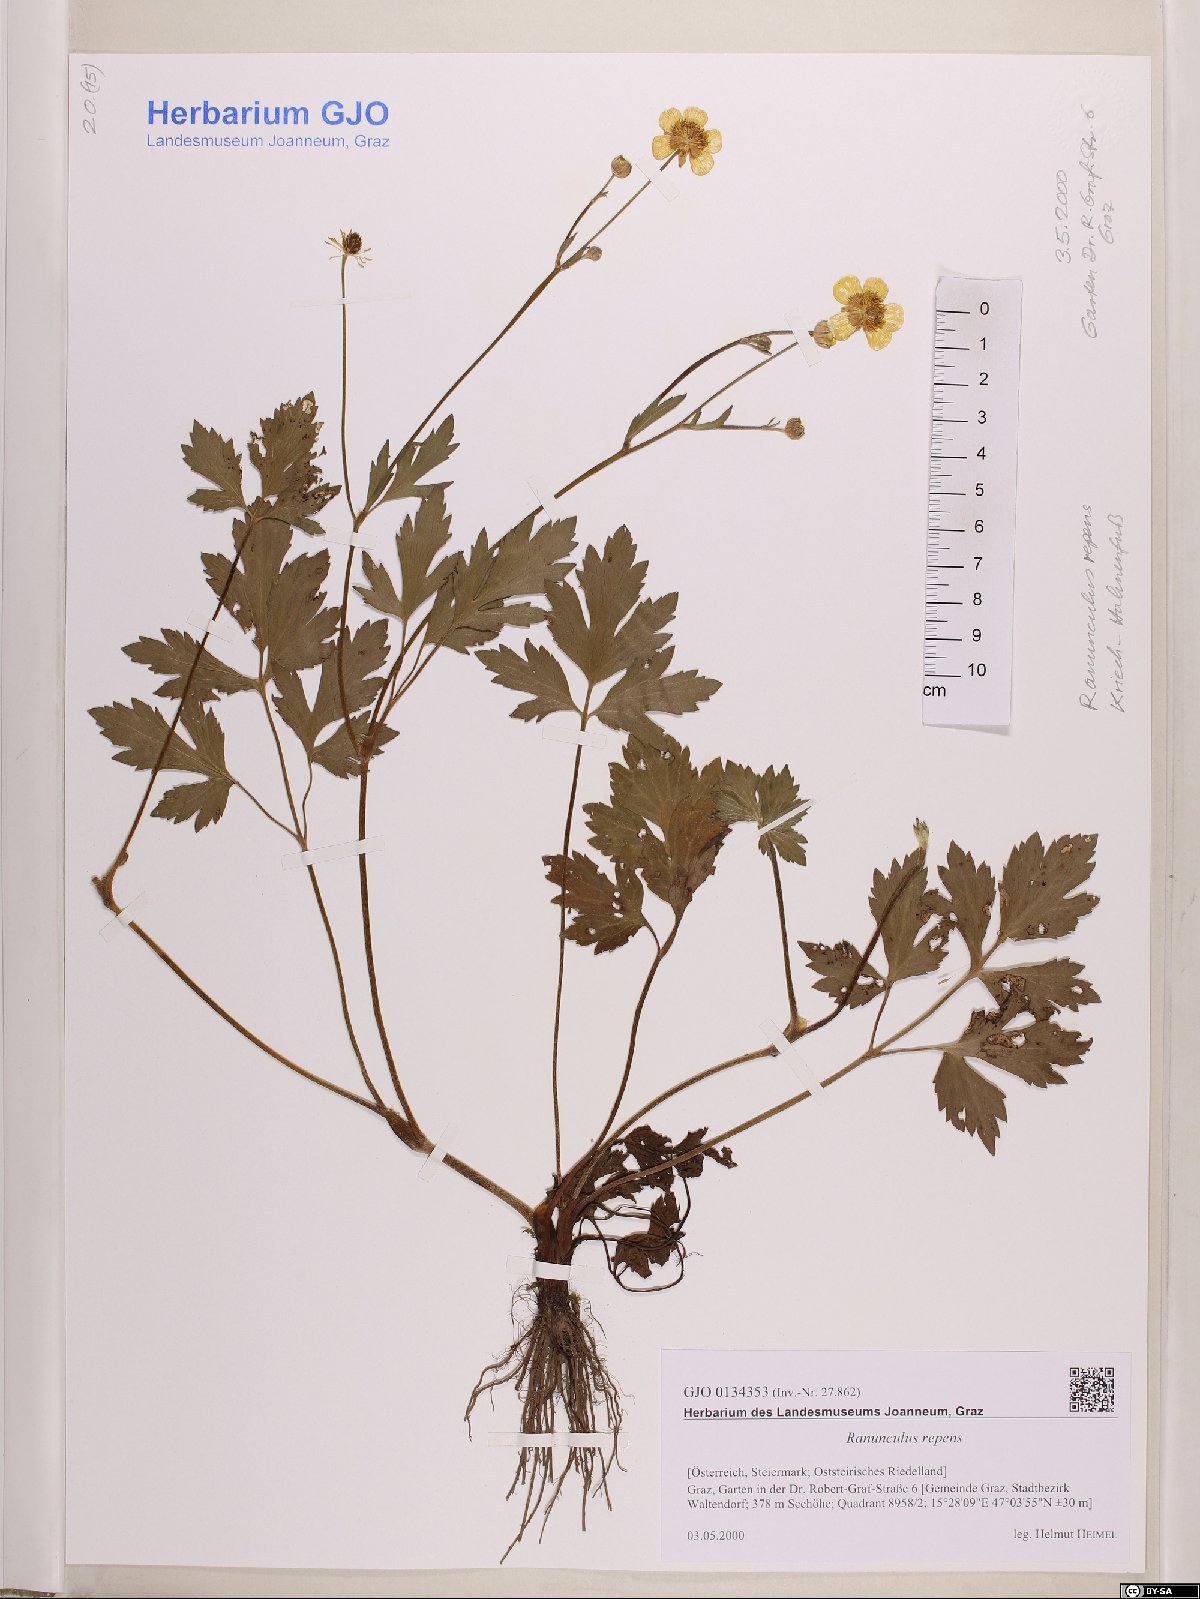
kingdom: Plantae
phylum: Tracheophyta
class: Magnoliopsida
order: Ranunculales
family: Ranunculaceae
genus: Ranunculus
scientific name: Ranunculus repens
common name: Creeping buttercup
